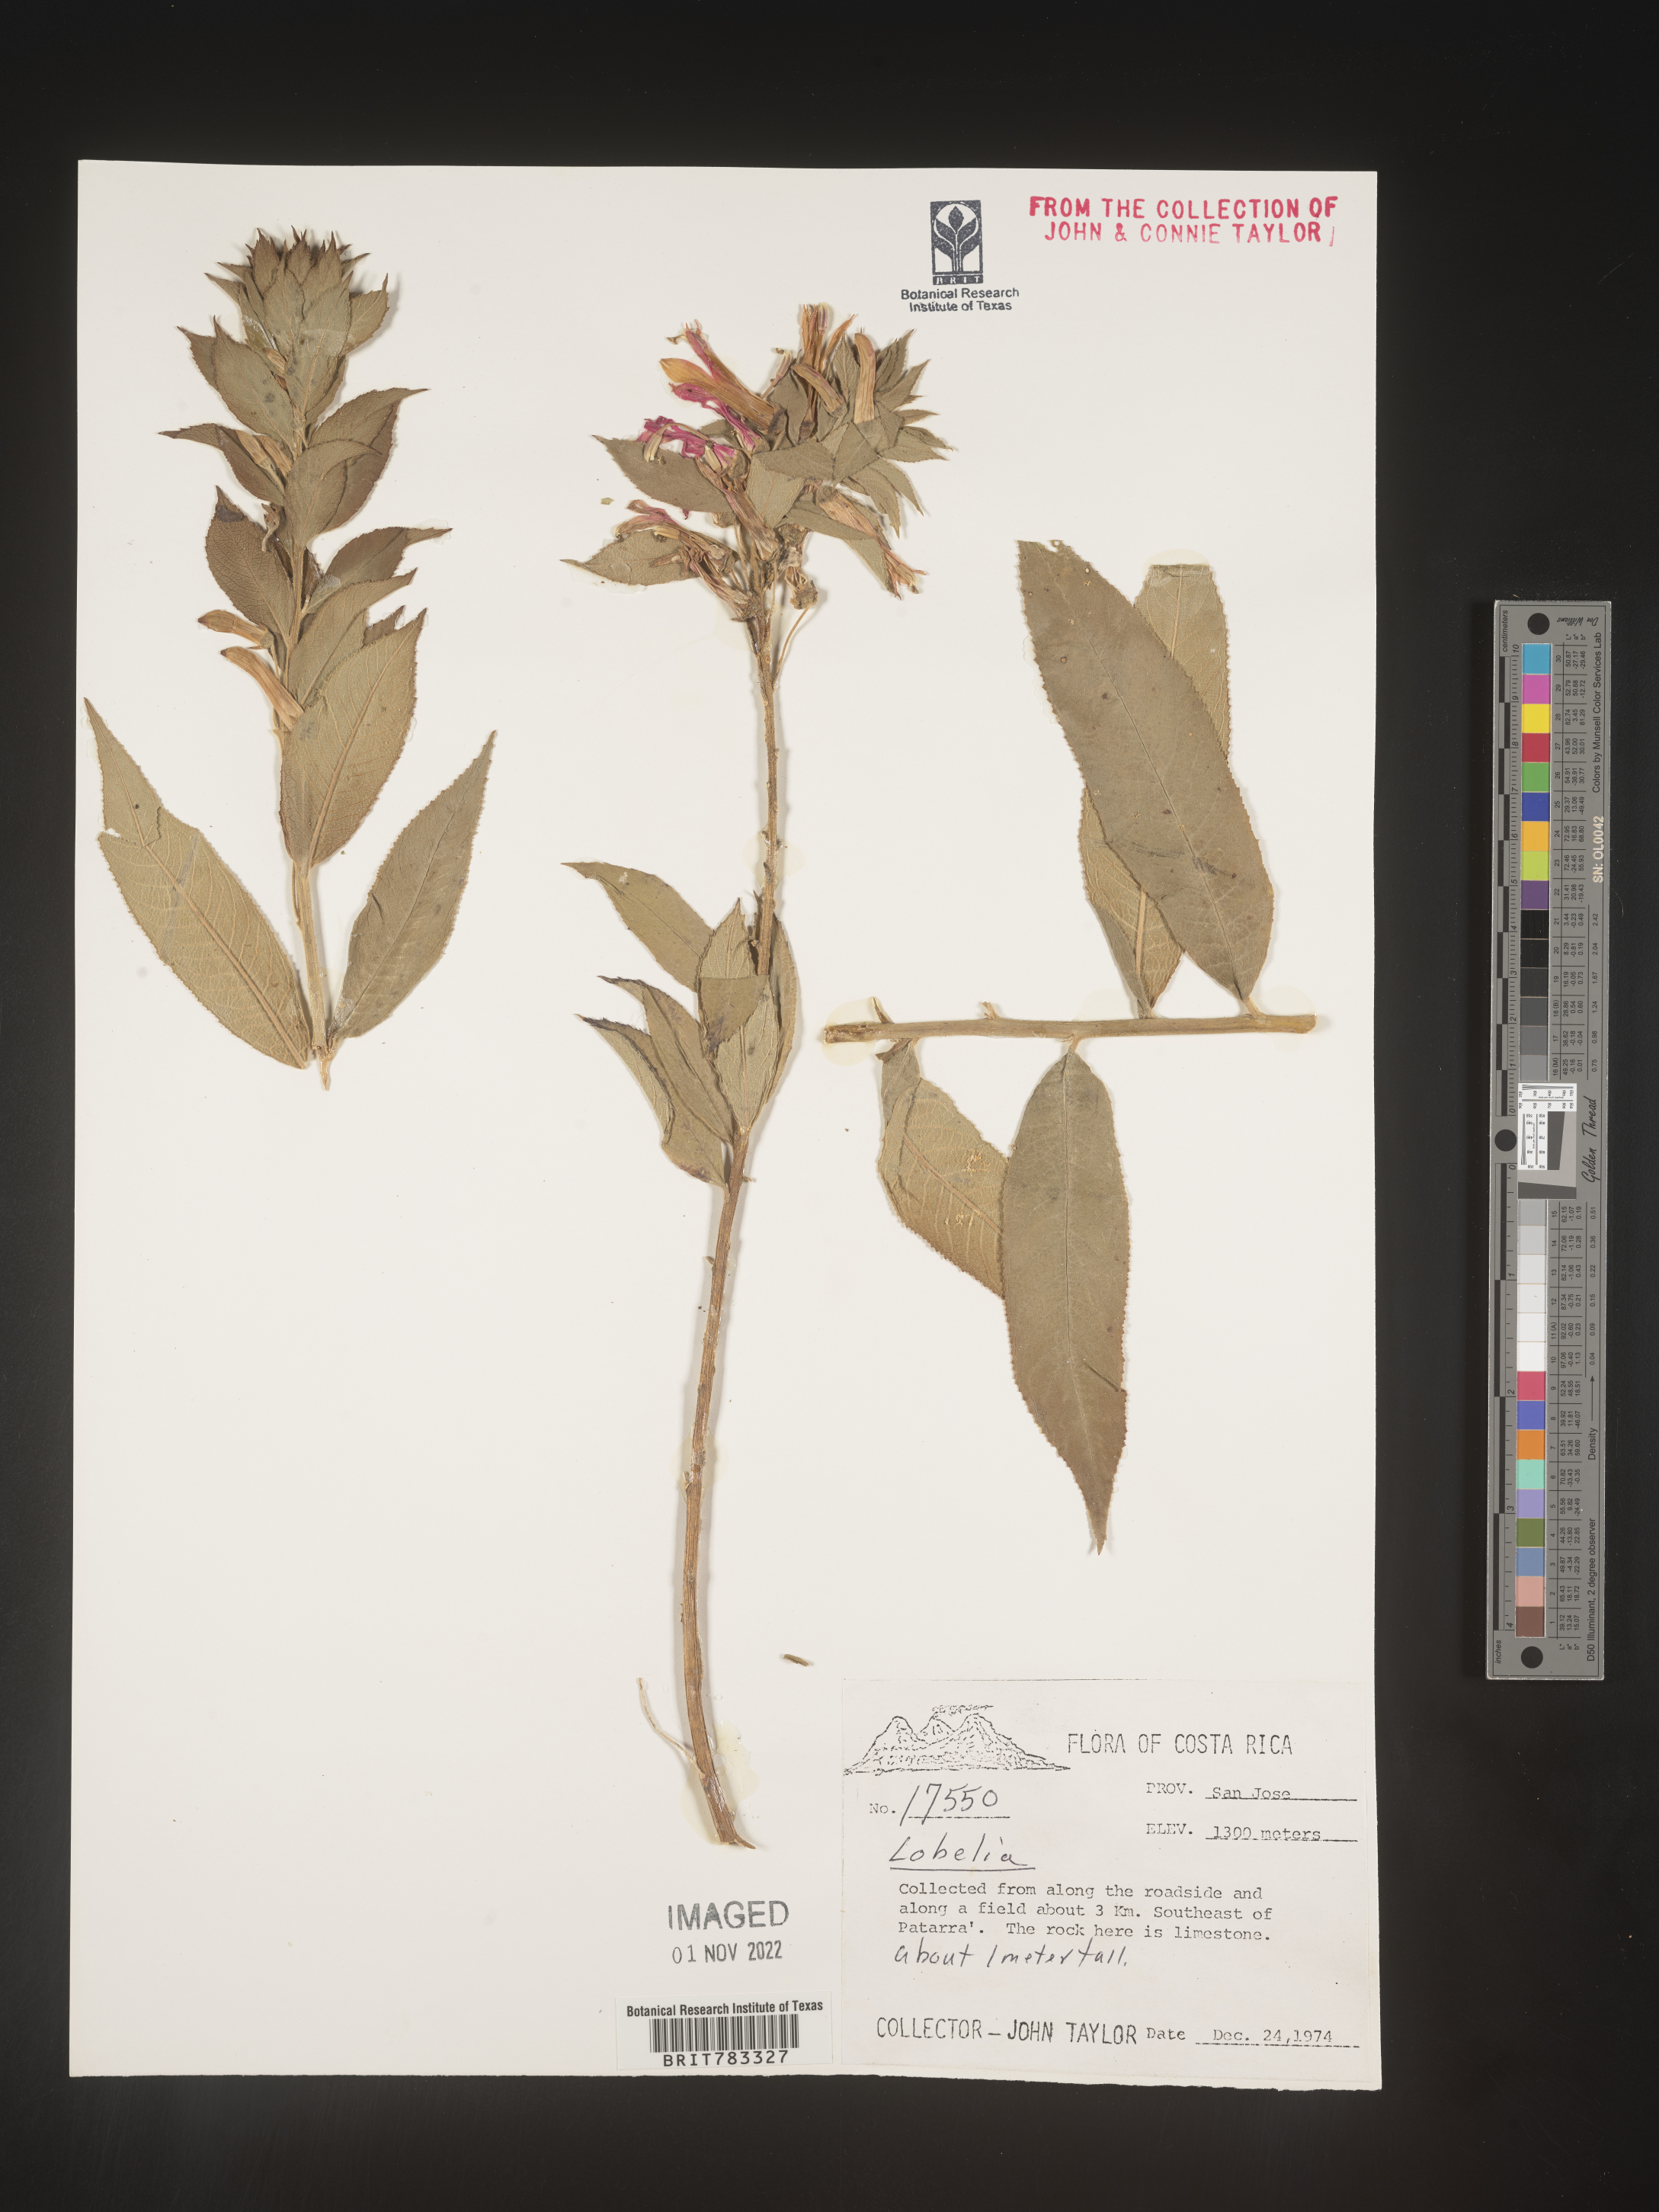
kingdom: Plantae
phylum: Tracheophyta
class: Magnoliopsida
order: Asterales
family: Campanulaceae
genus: Lobelia
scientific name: Lobelia
